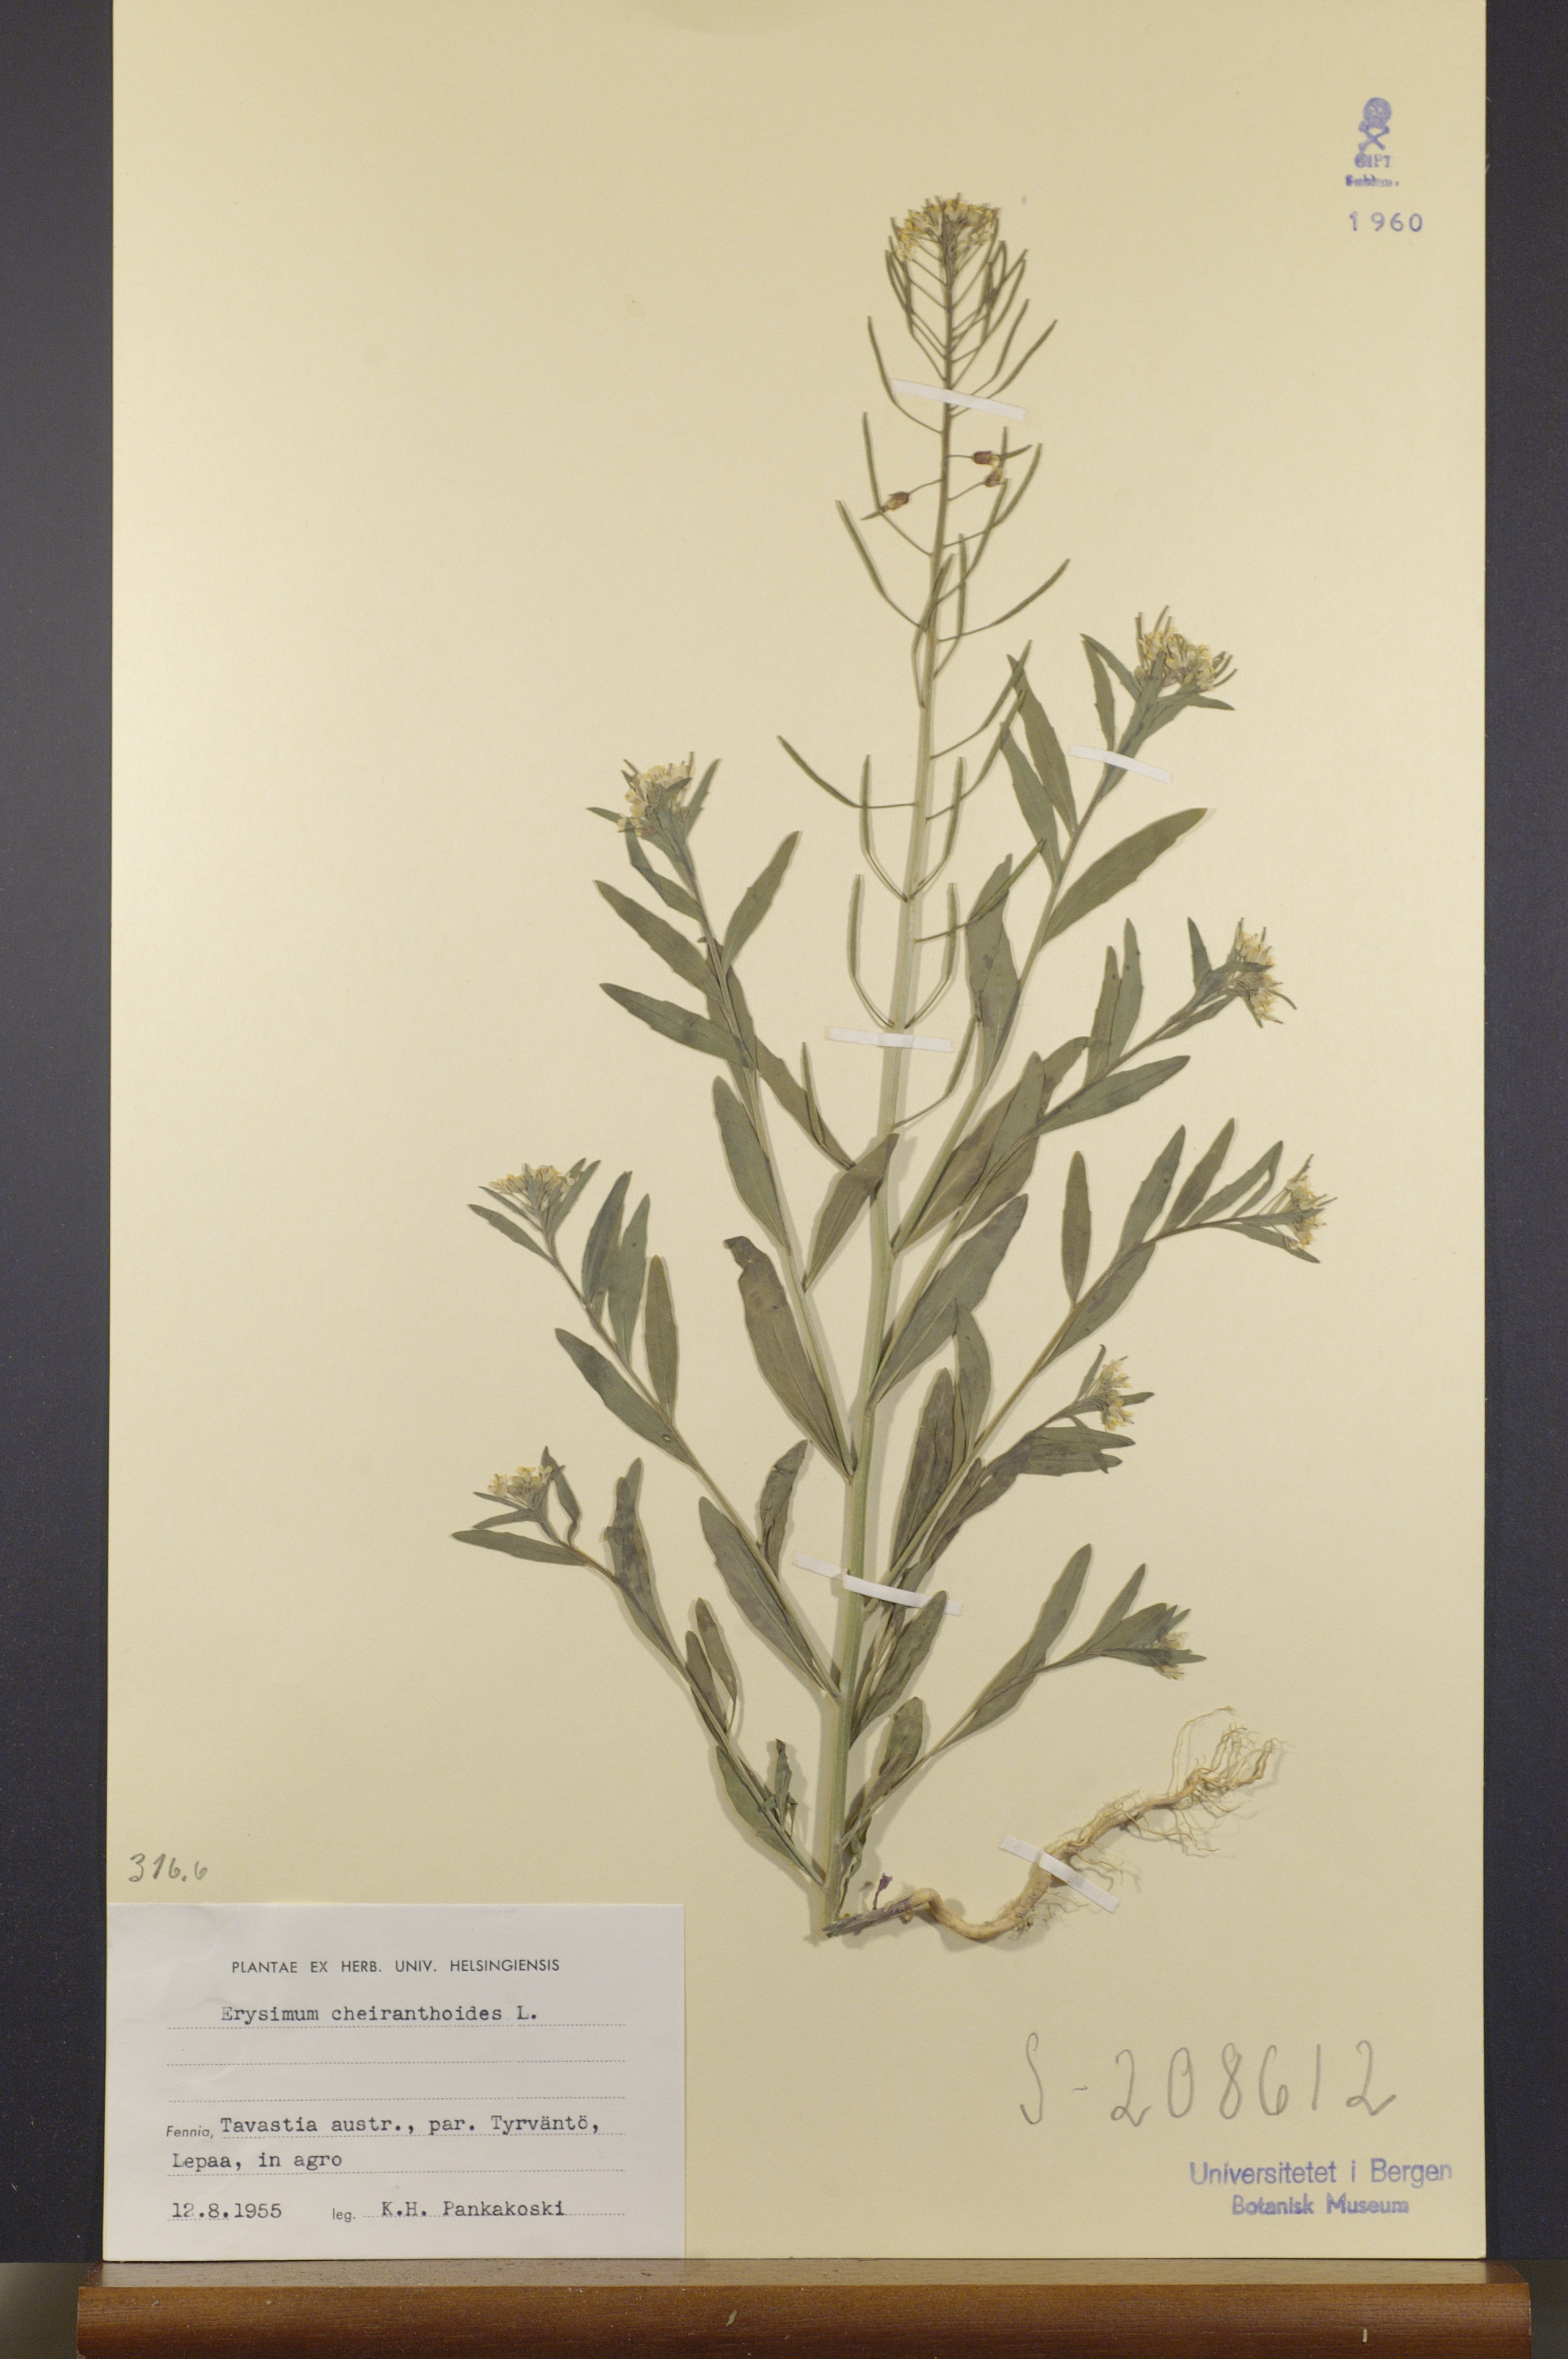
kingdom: Plantae
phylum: Tracheophyta
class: Magnoliopsida
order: Brassicales
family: Brassicaceae
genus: Erysimum
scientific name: Erysimum cheiranthoides
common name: Treacle mustard
